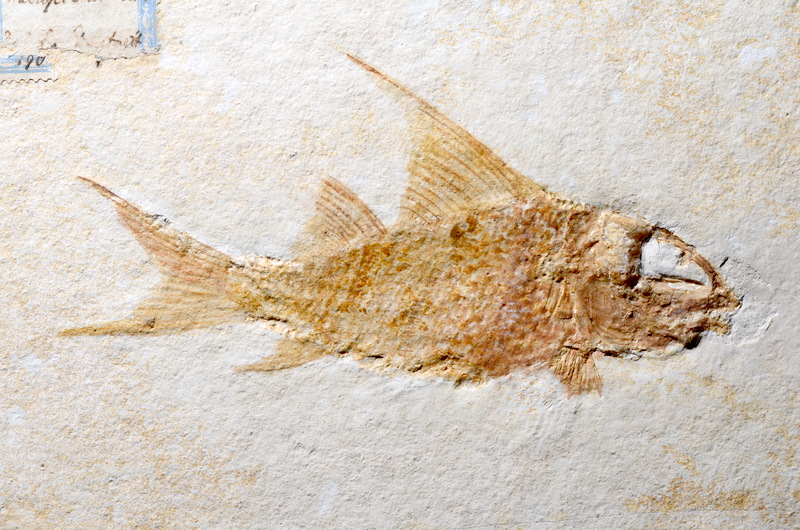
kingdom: Animalia
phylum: Chordata
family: Macrosemiidae
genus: Propterus
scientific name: Propterus microstomus
